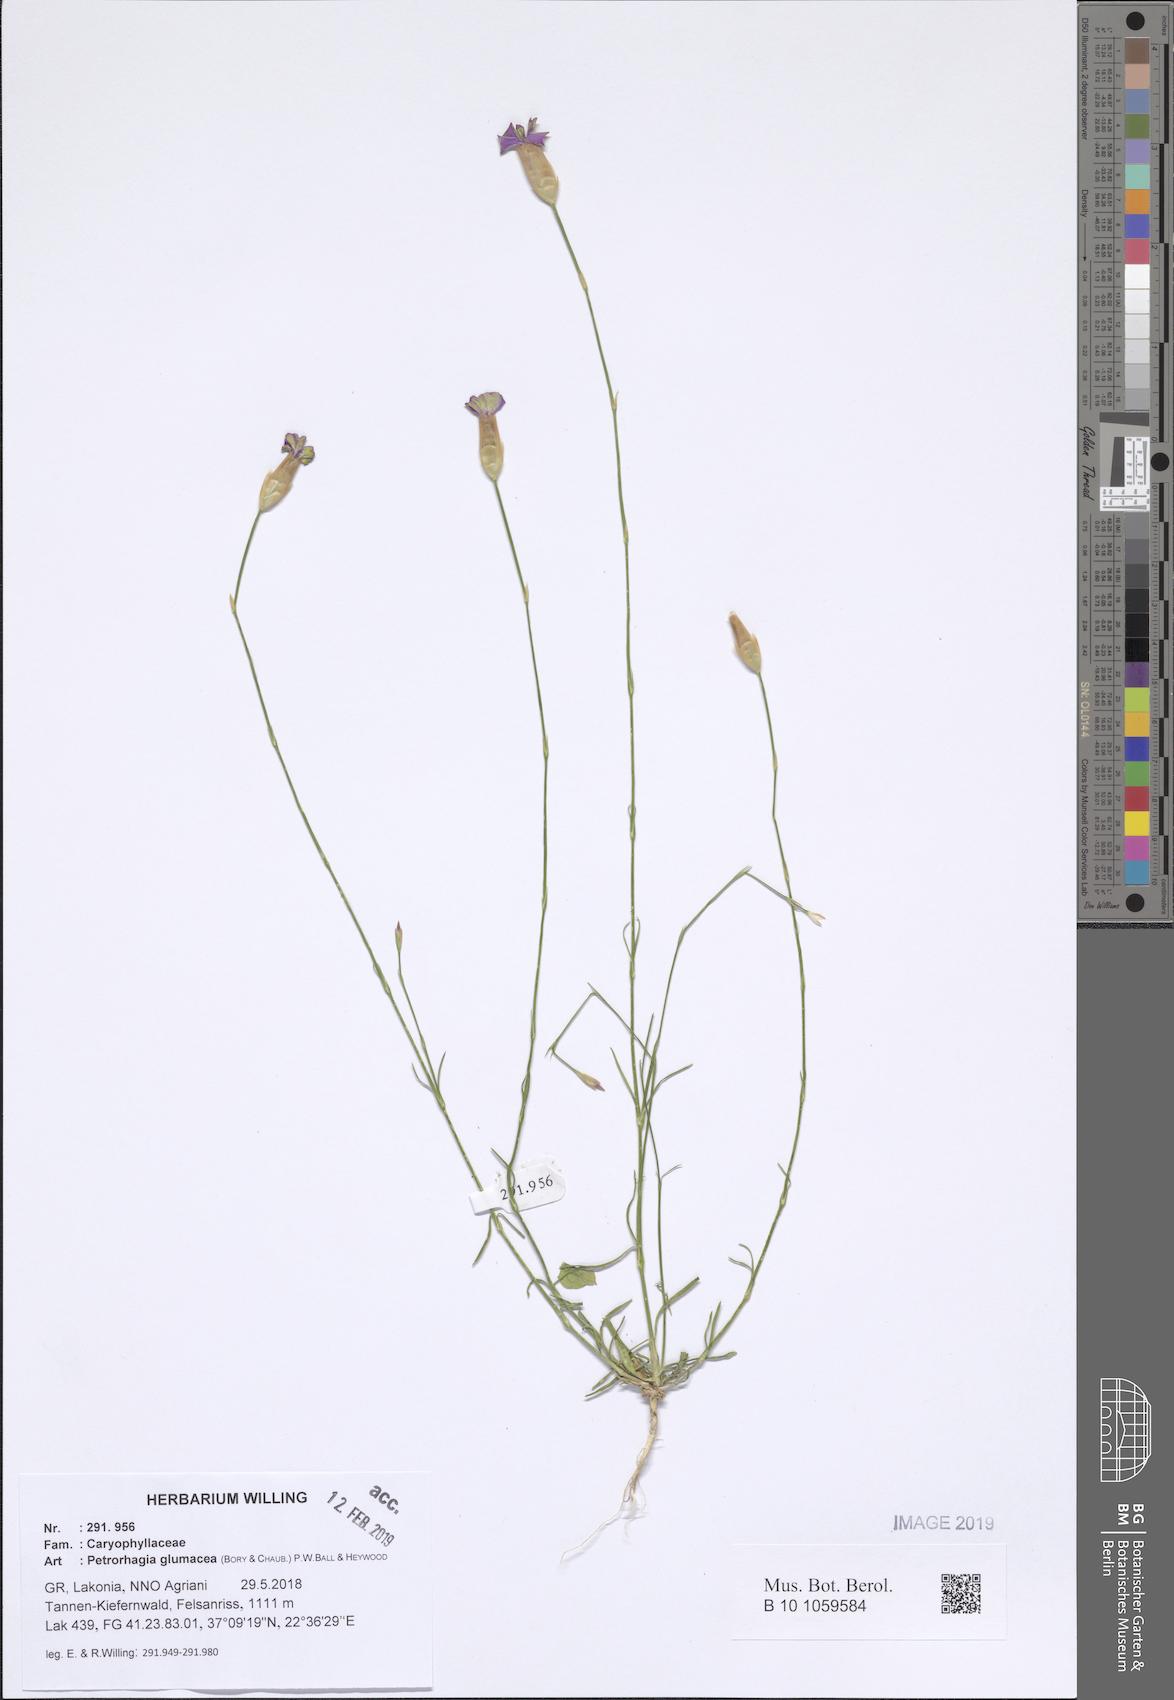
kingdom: Plantae
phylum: Tracheophyta
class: Magnoliopsida
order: Caryophyllales
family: Caryophyllaceae
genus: Petrorhagia
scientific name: Petrorhagia glumacea
